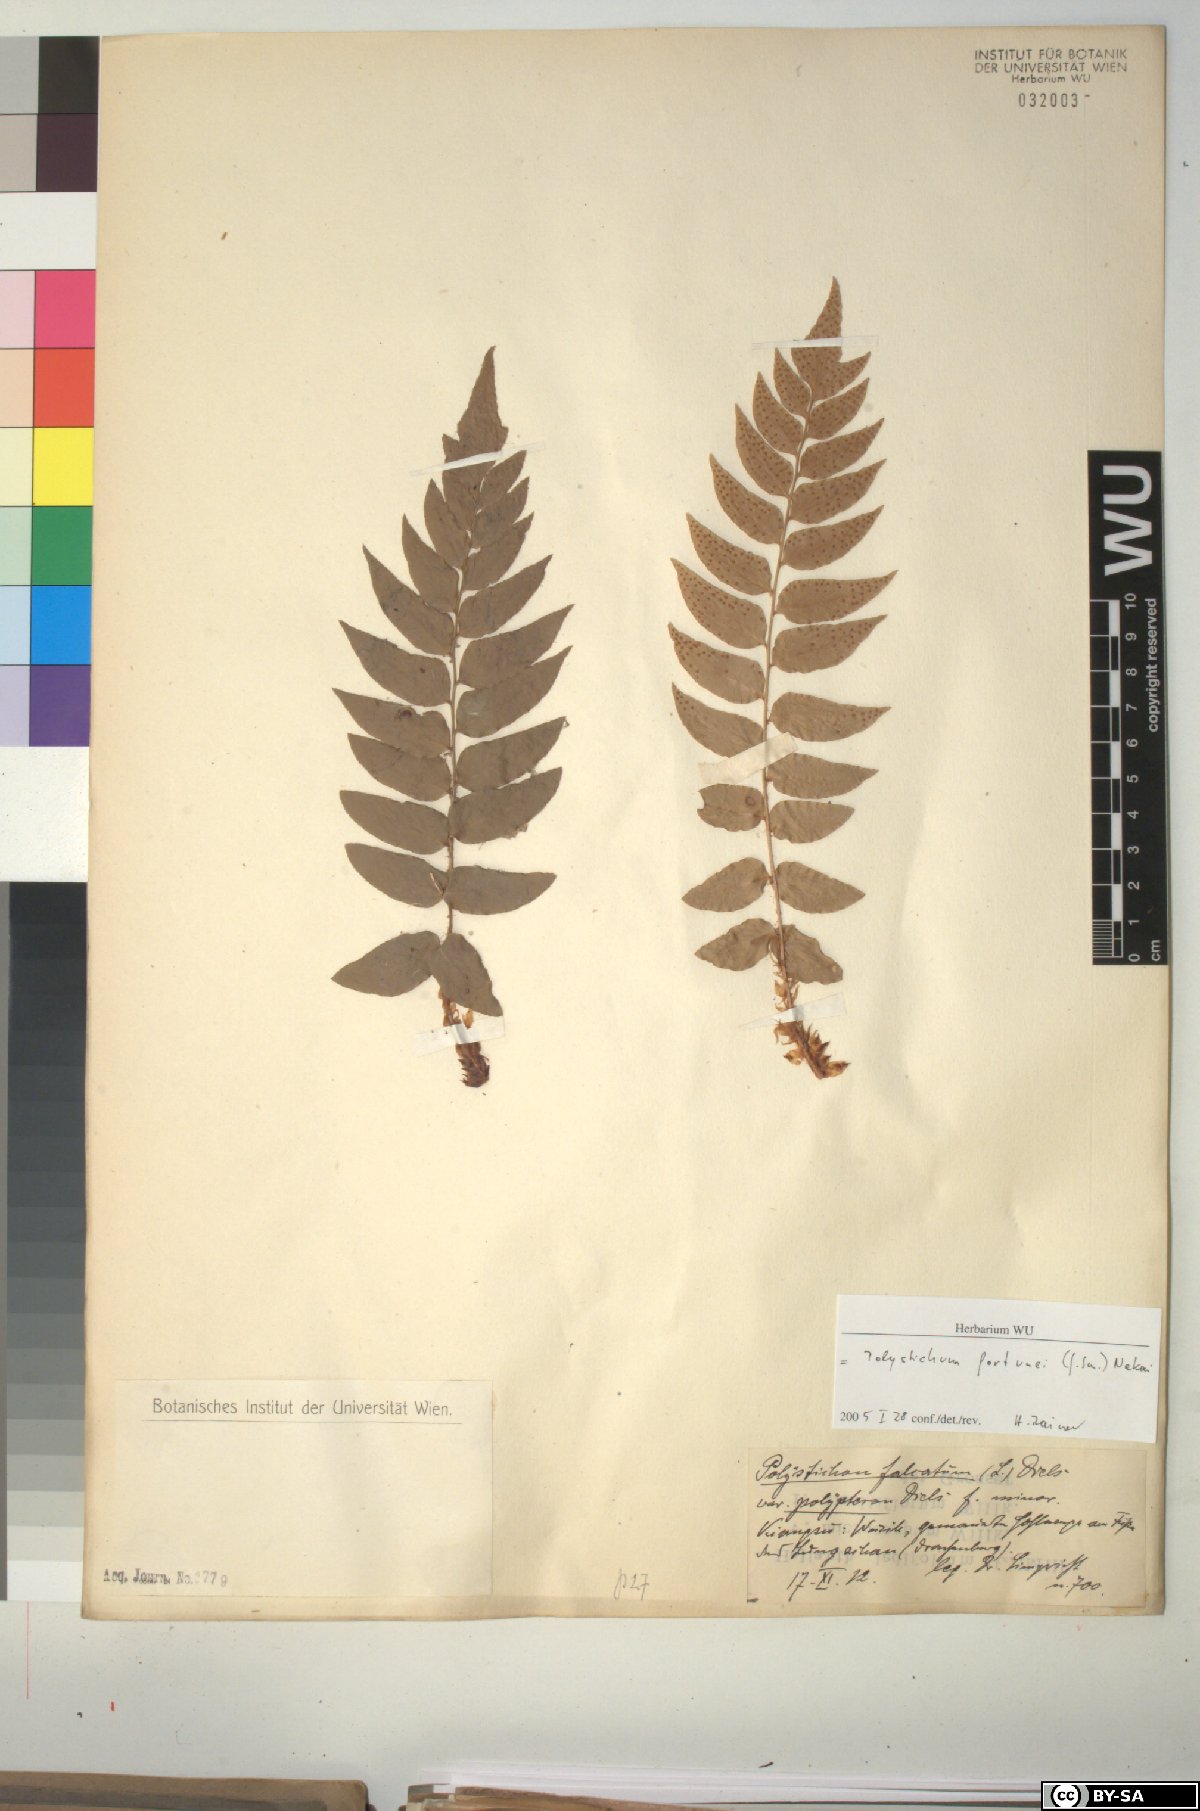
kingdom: Plantae
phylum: Tracheophyta
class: Polypodiopsida
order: Polypodiales
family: Dryopteridaceae
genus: Cyrtomium
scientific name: Cyrtomium fortunei
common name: Asian netvein hollyfern
